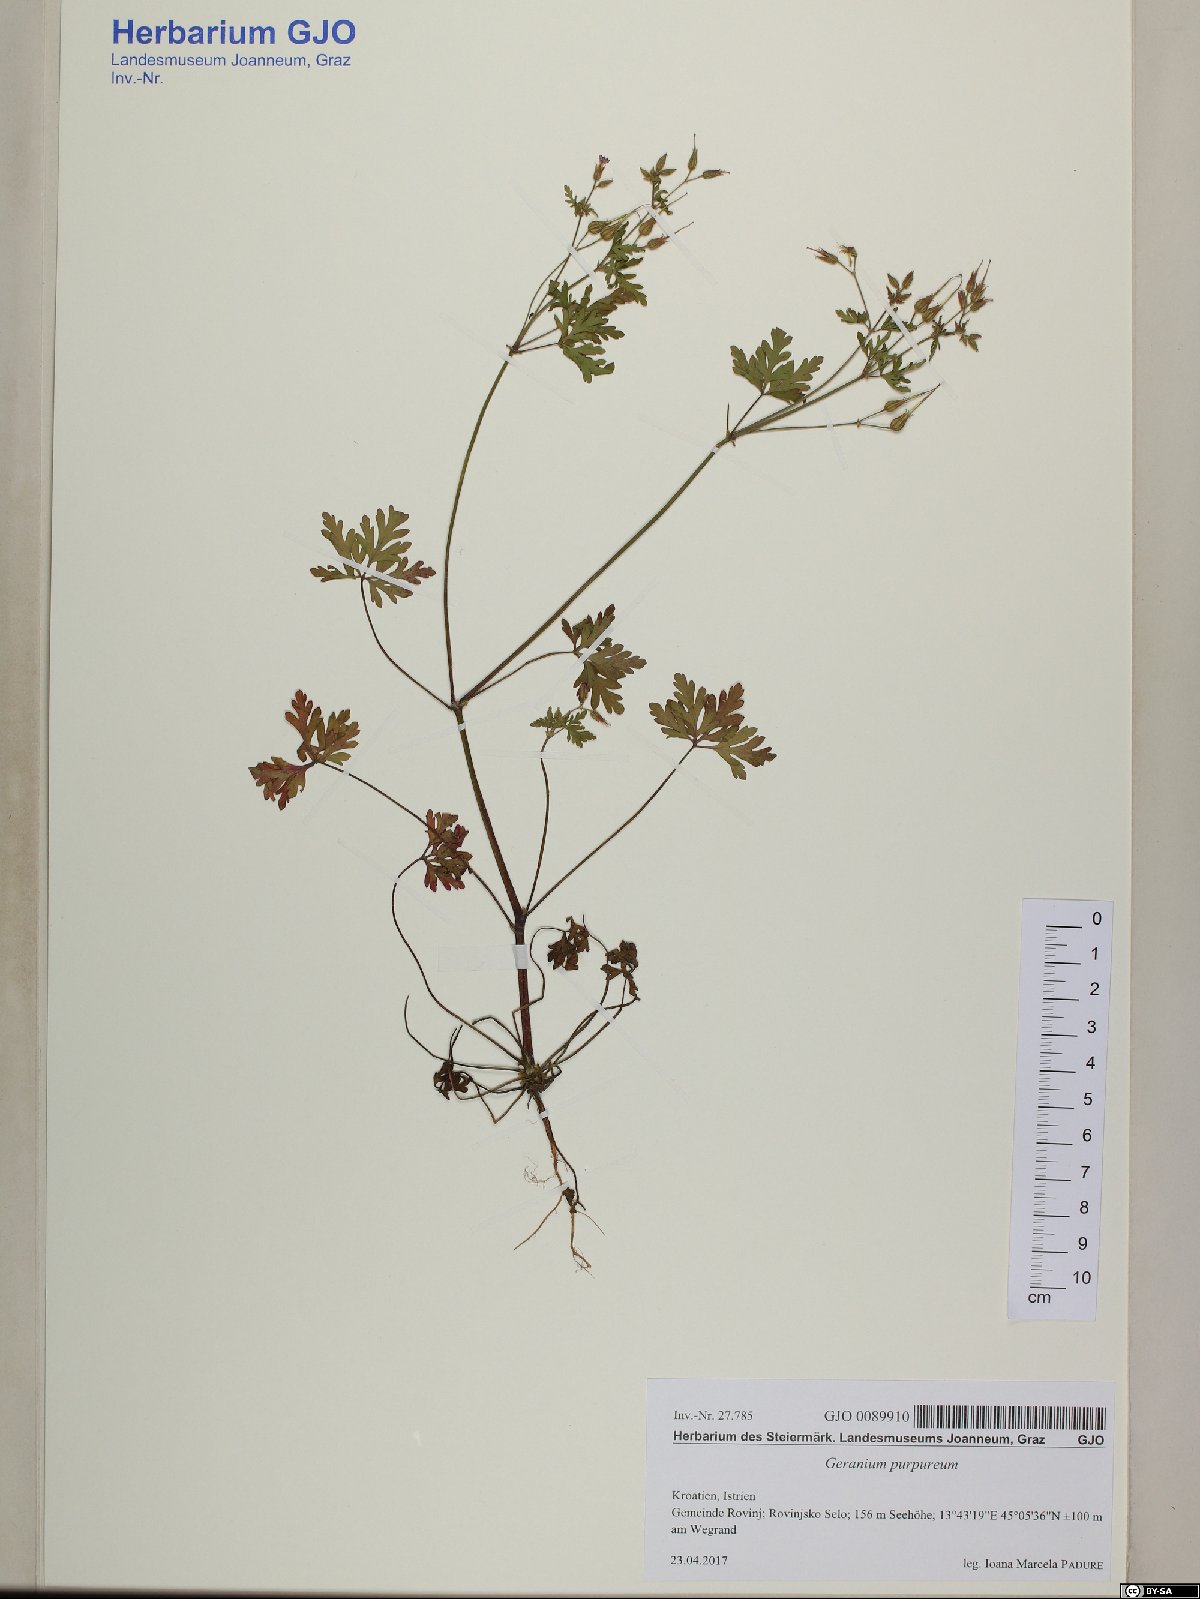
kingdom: Plantae
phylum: Tracheophyta
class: Magnoliopsida
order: Geraniales
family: Geraniaceae
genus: Geranium
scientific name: Geranium purpureum
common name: Little-robin
